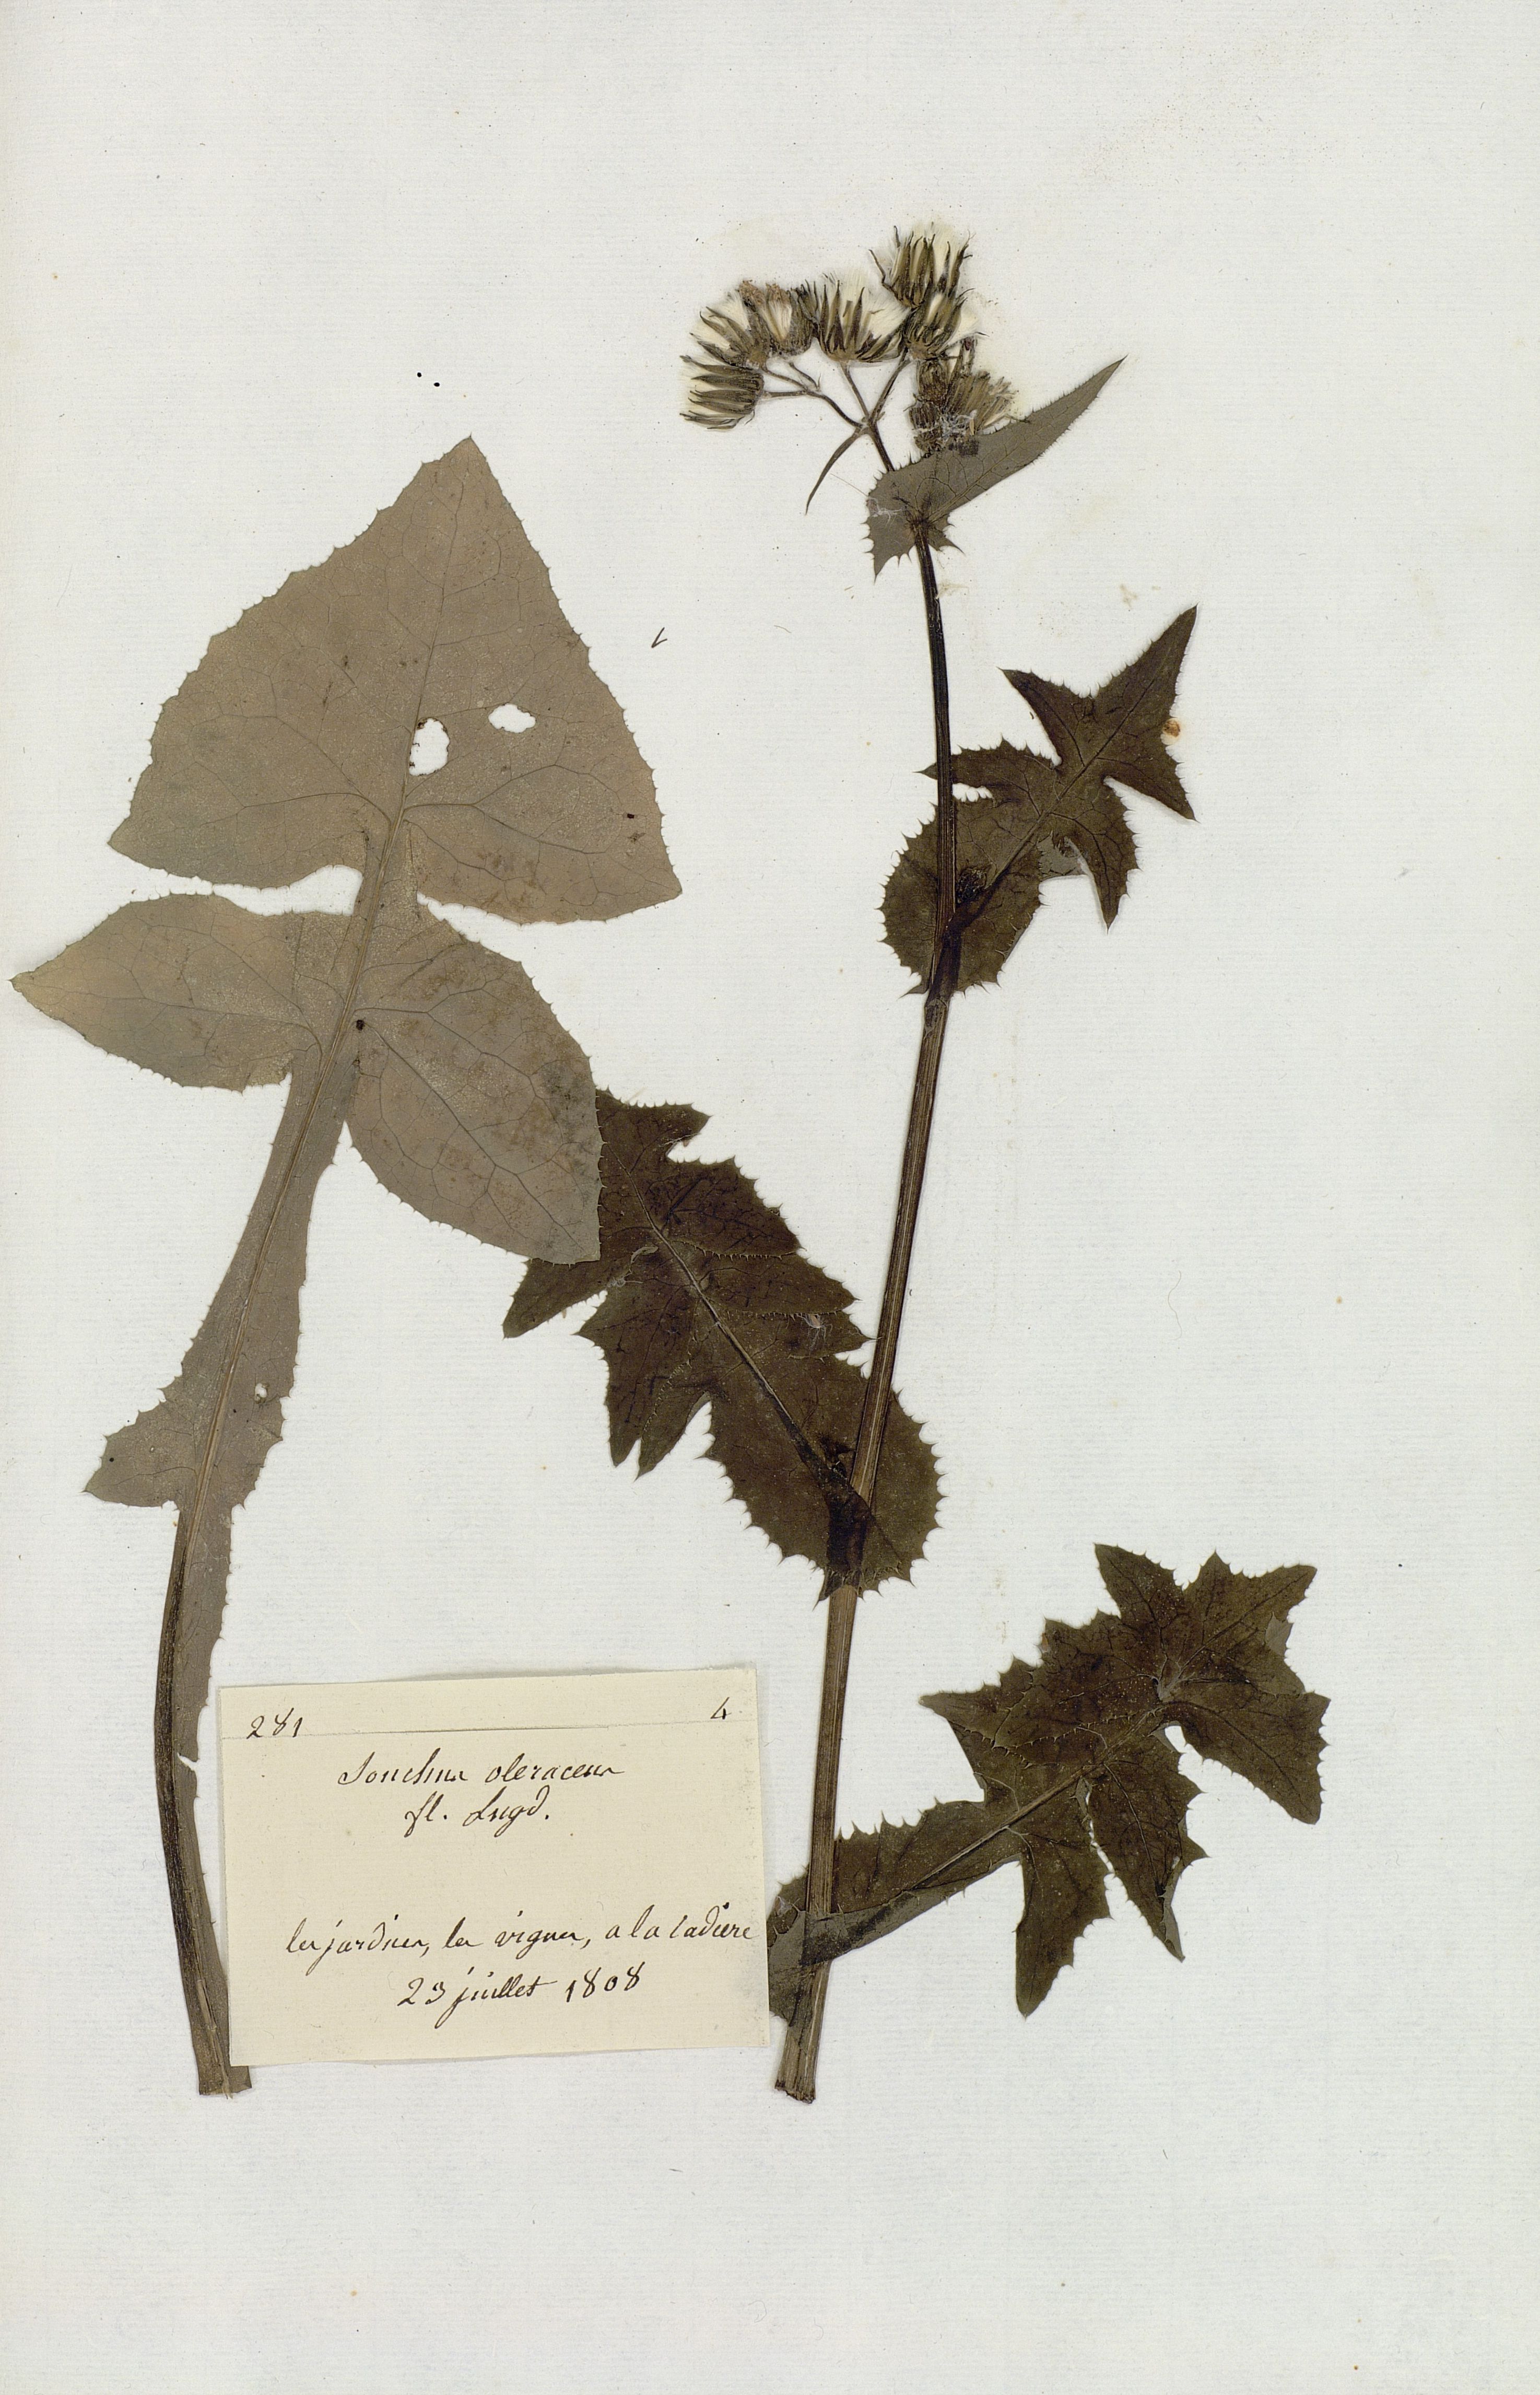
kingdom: Plantae
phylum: Tracheophyta
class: Magnoliopsida
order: Asterales
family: Asteraceae
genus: Sonchus
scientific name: Sonchus oleraceus
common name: Common sowthistle
